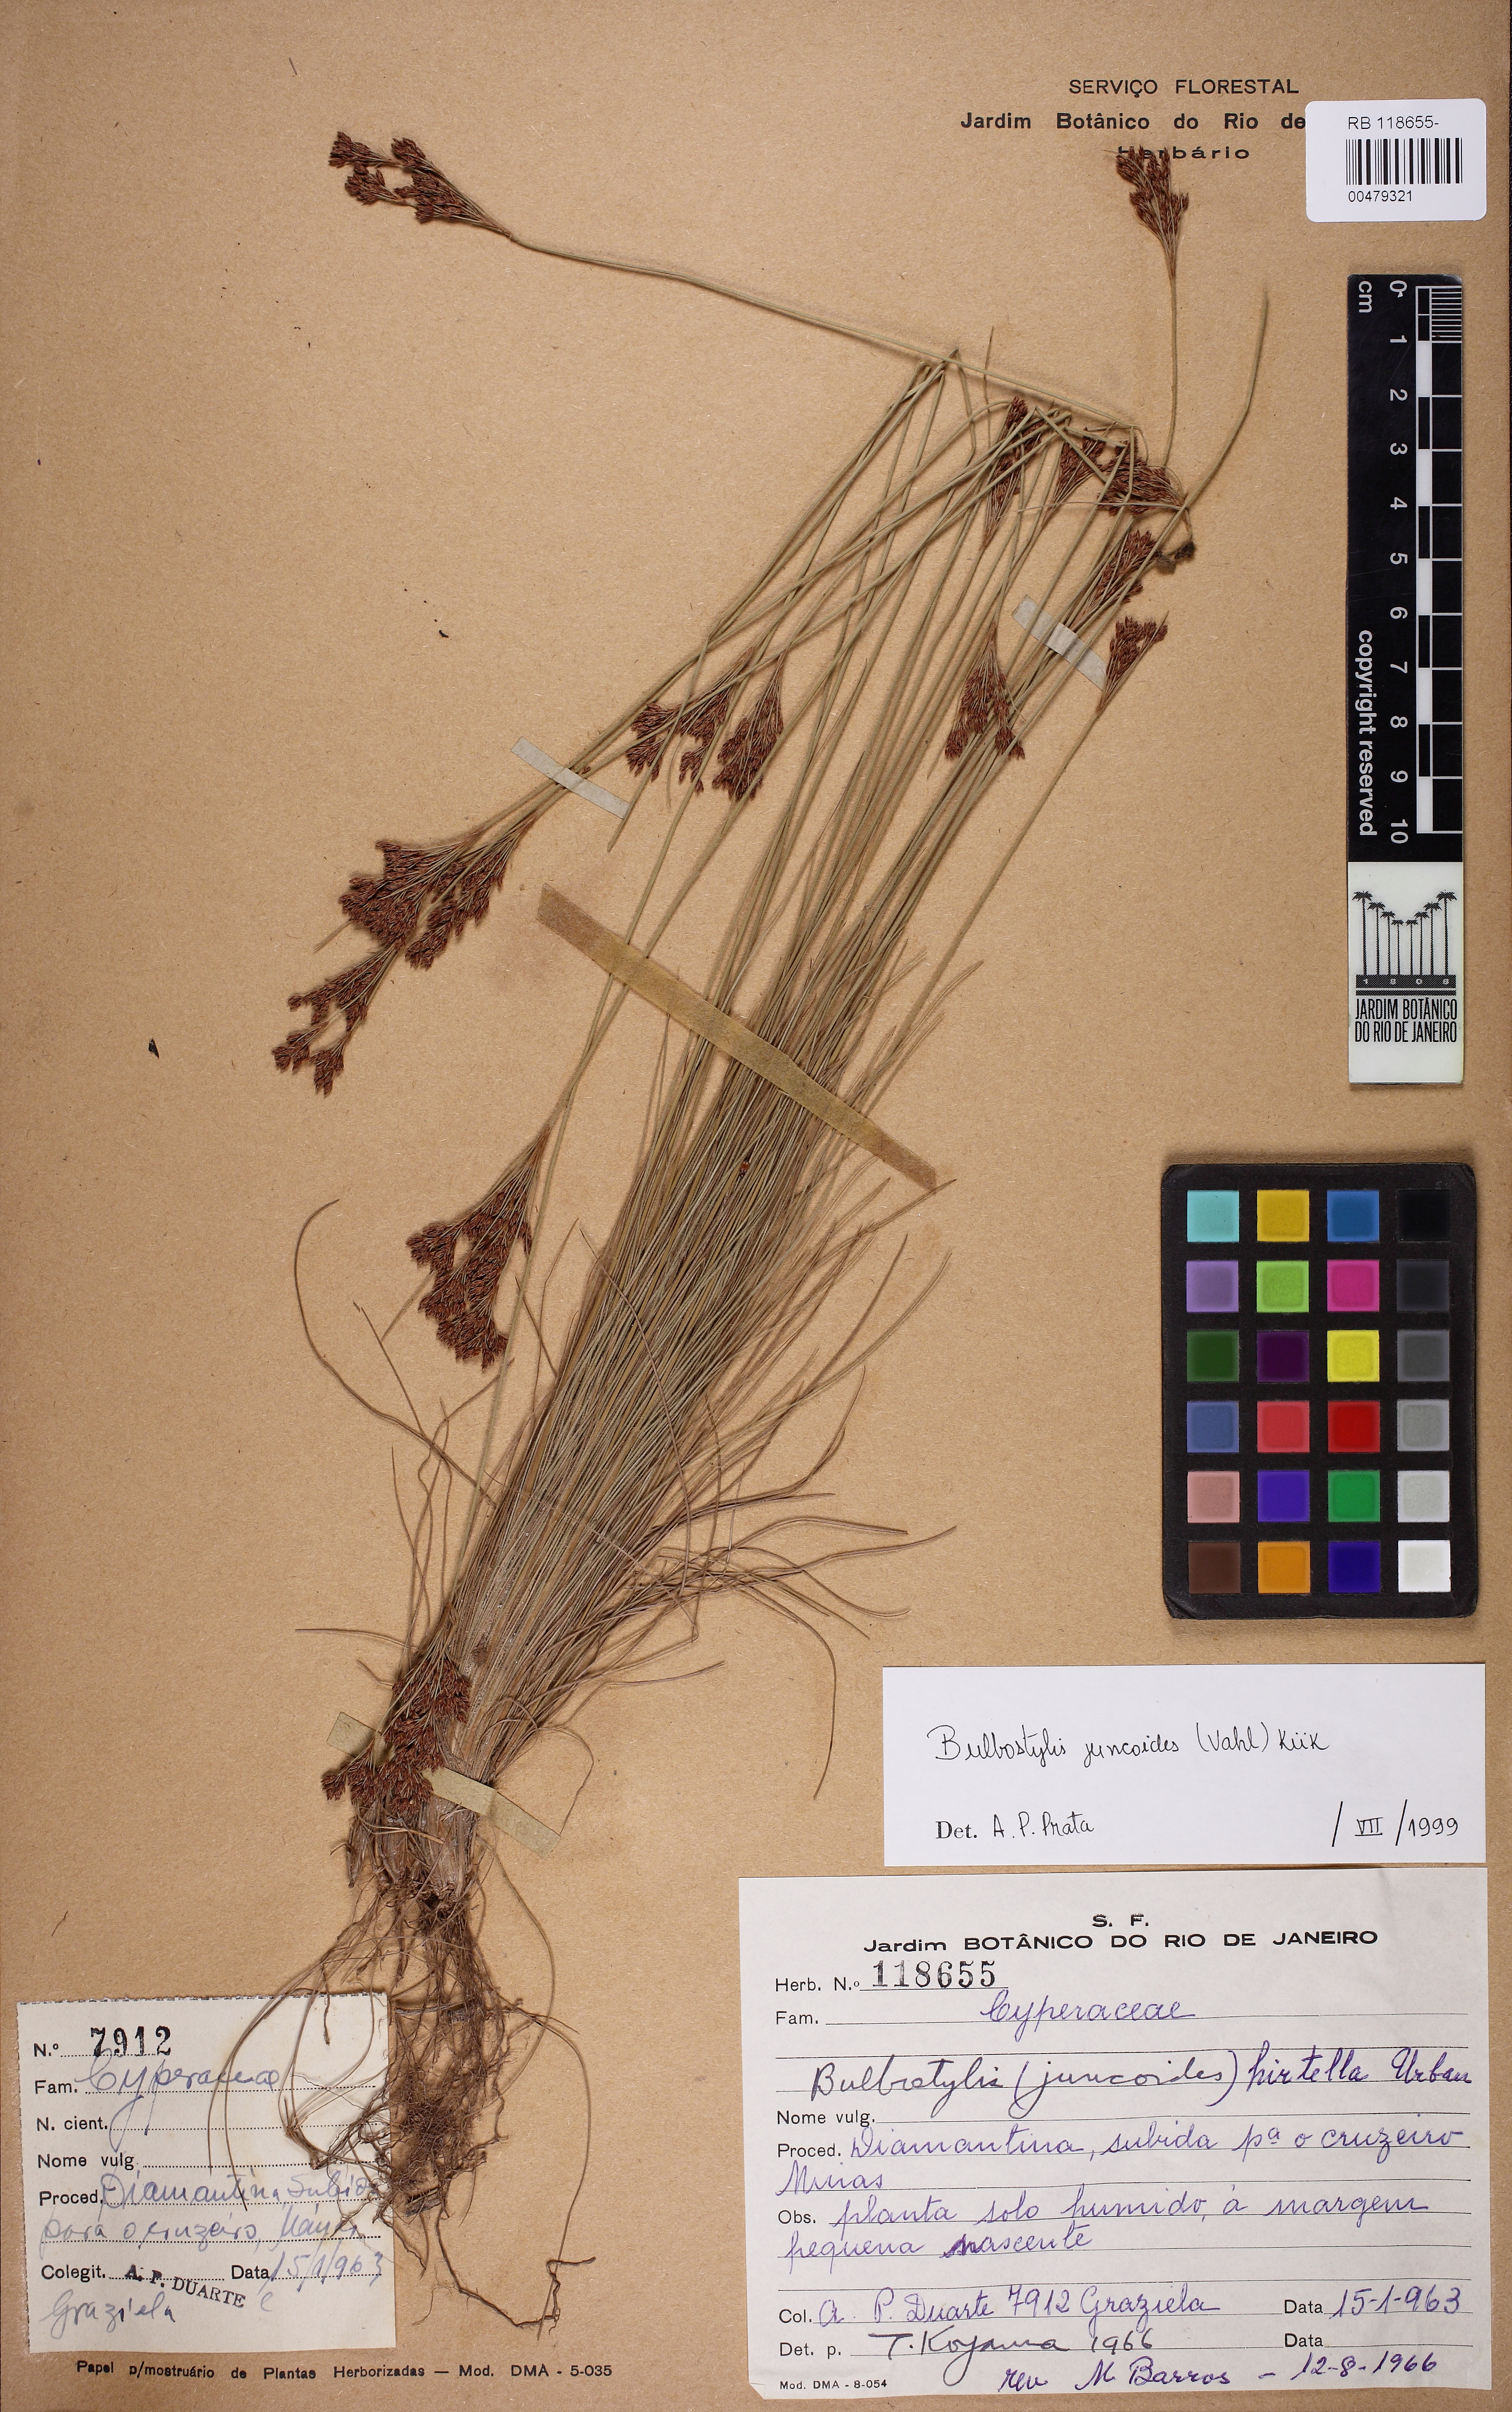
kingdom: Plantae
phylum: Tracheophyta
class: Liliopsida
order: Poales
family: Cyperaceae
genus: Bulbostylis
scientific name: Bulbostylis juncoides
